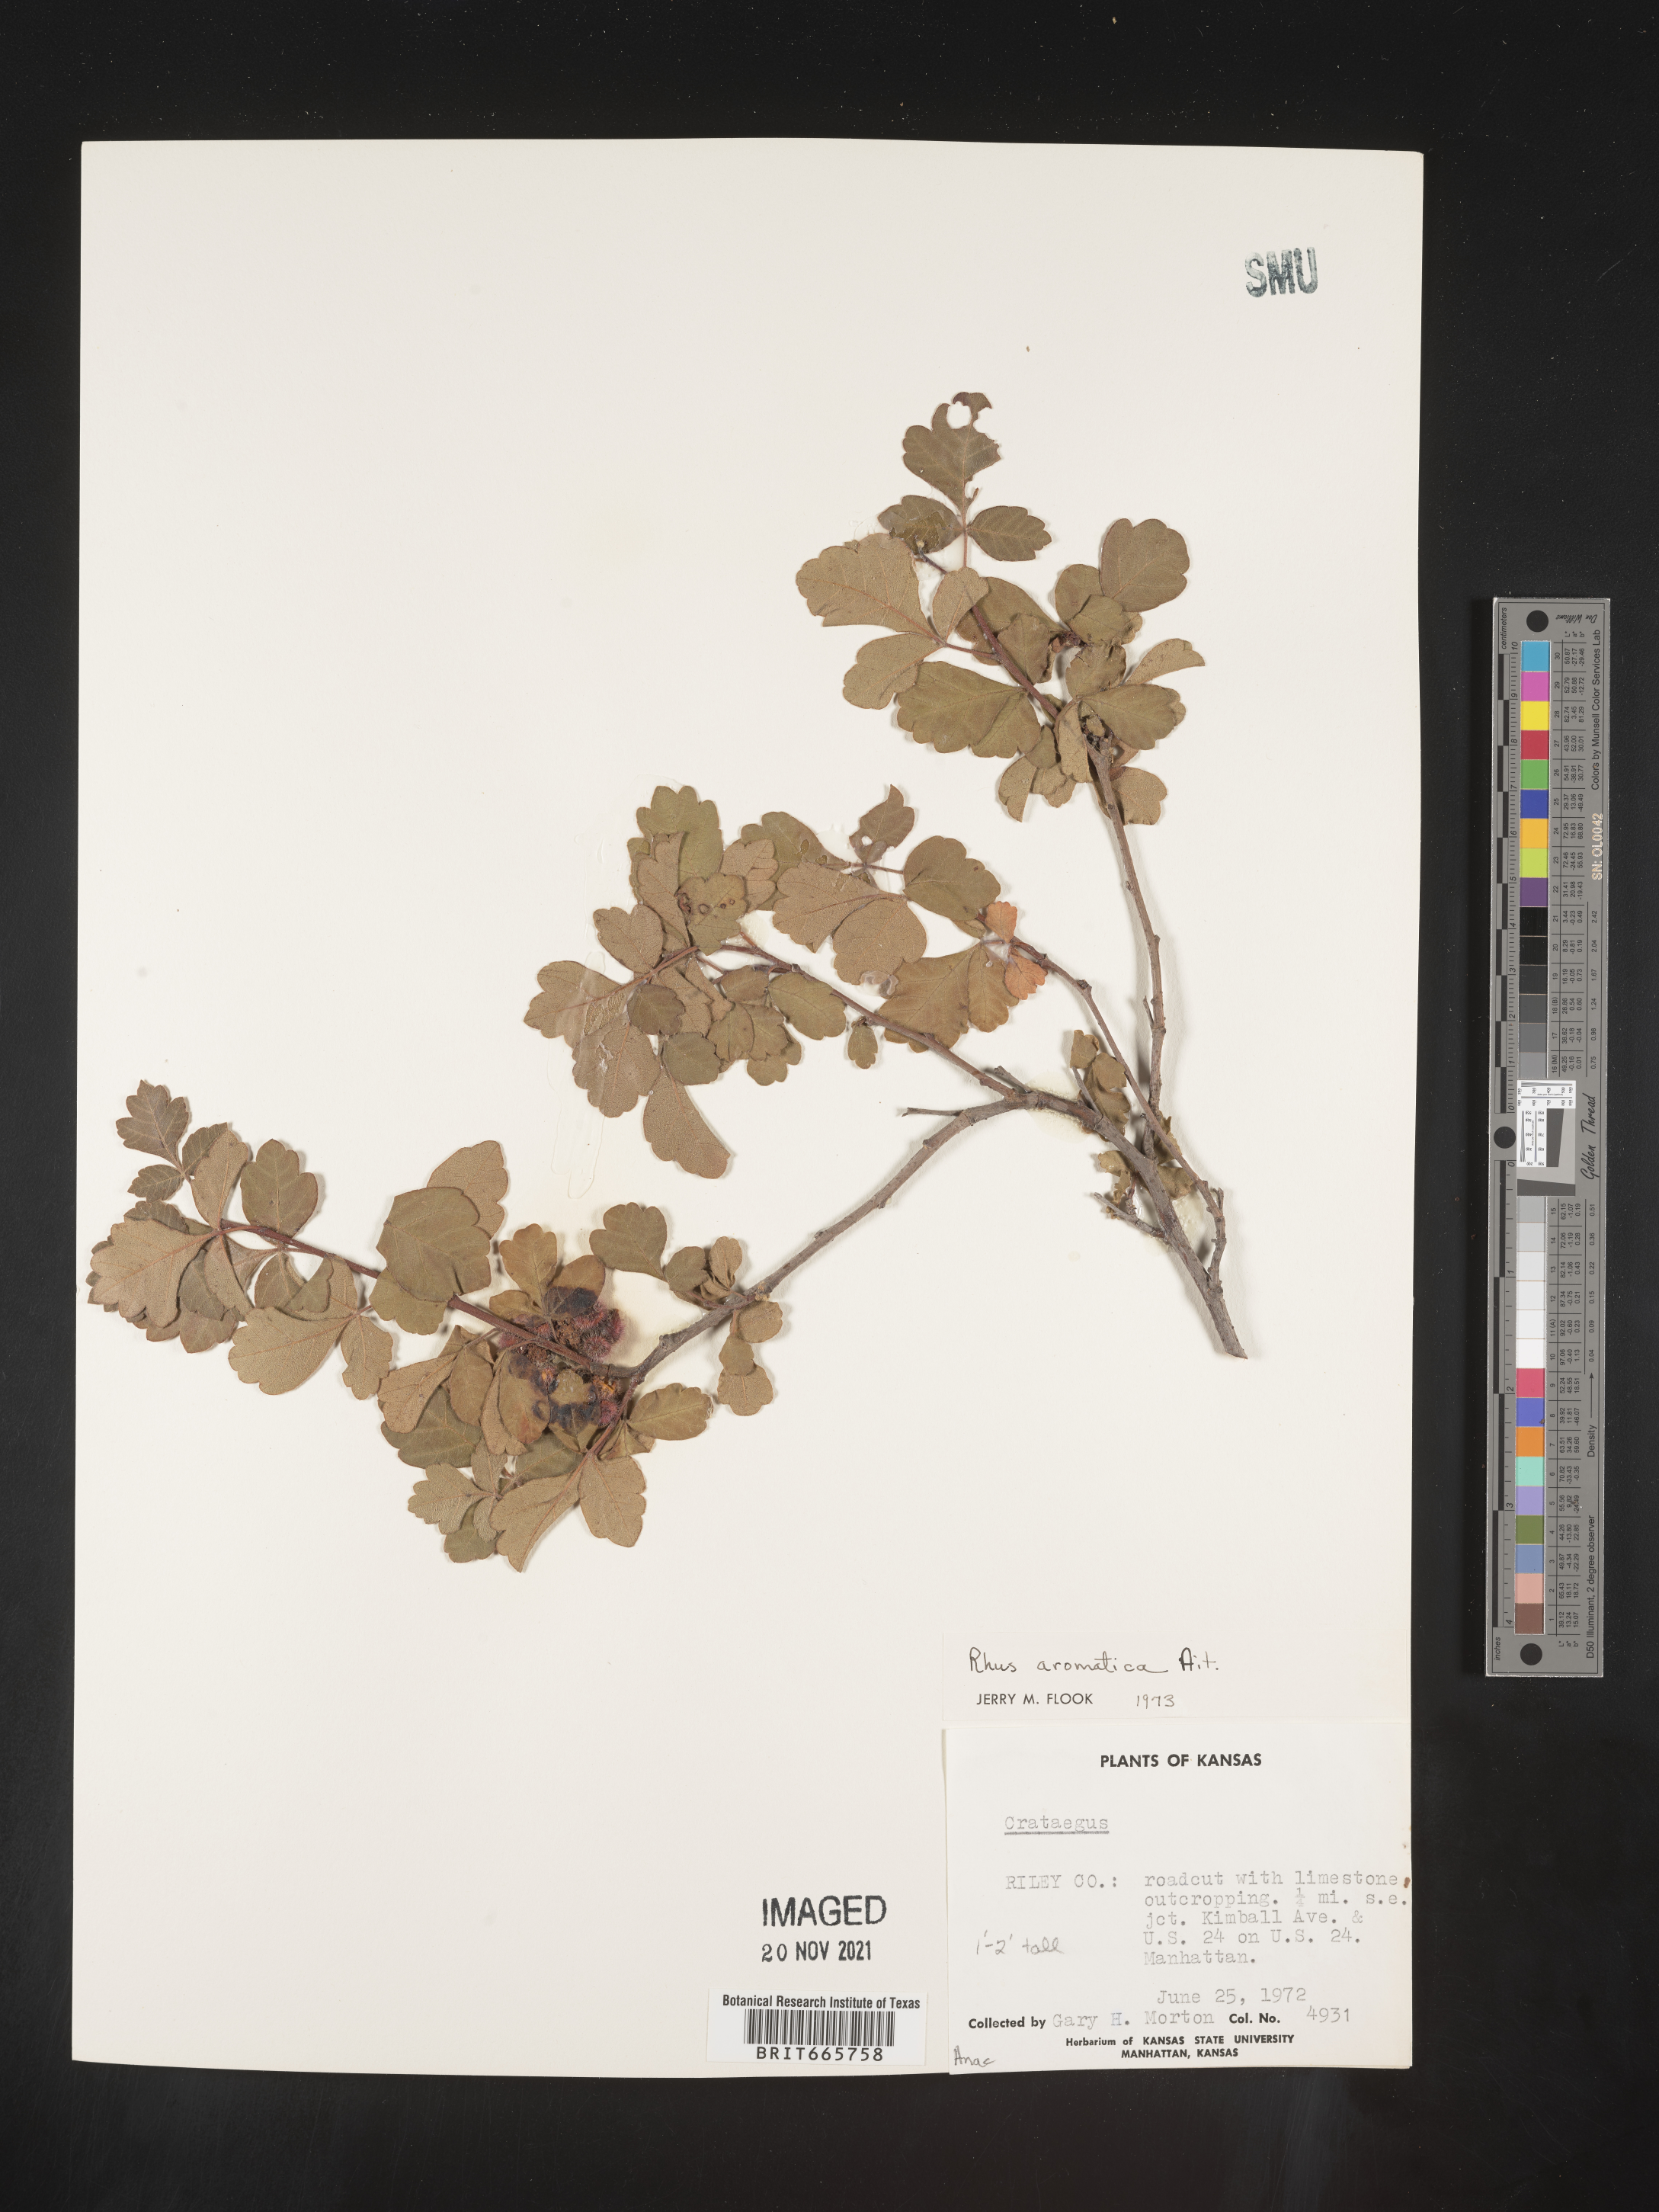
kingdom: Plantae
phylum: Tracheophyta
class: Magnoliopsida
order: Sapindales
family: Anacardiaceae
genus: Rhus
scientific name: Rhus aromatica
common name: Aromatic sumac
